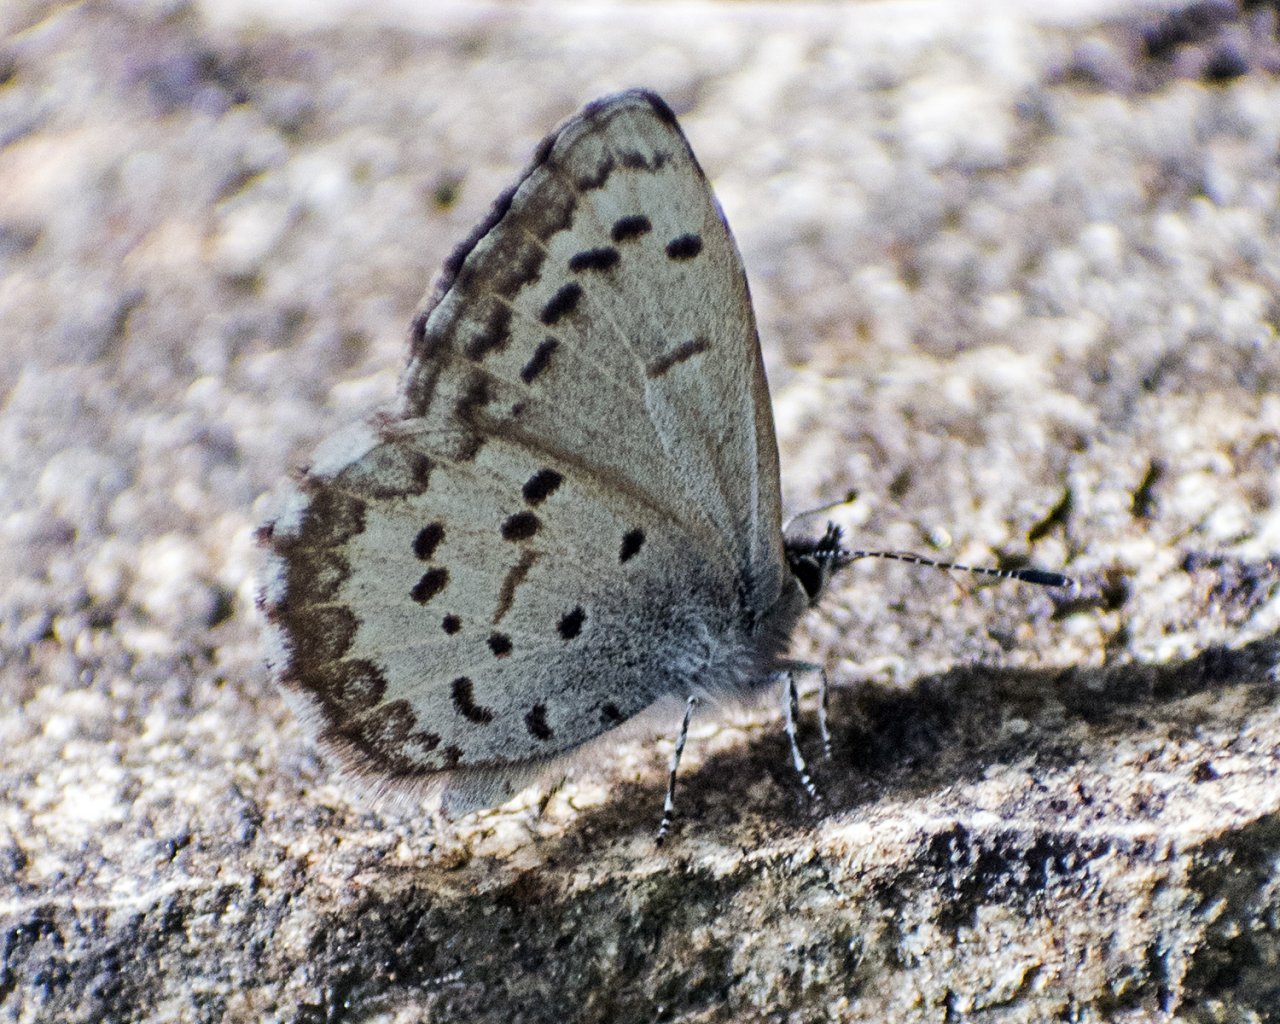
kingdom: Animalia
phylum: Arthropoda
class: Insecta
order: Lepidoptera
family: Lycaenidae
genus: Celastrina
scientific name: Celastrina
